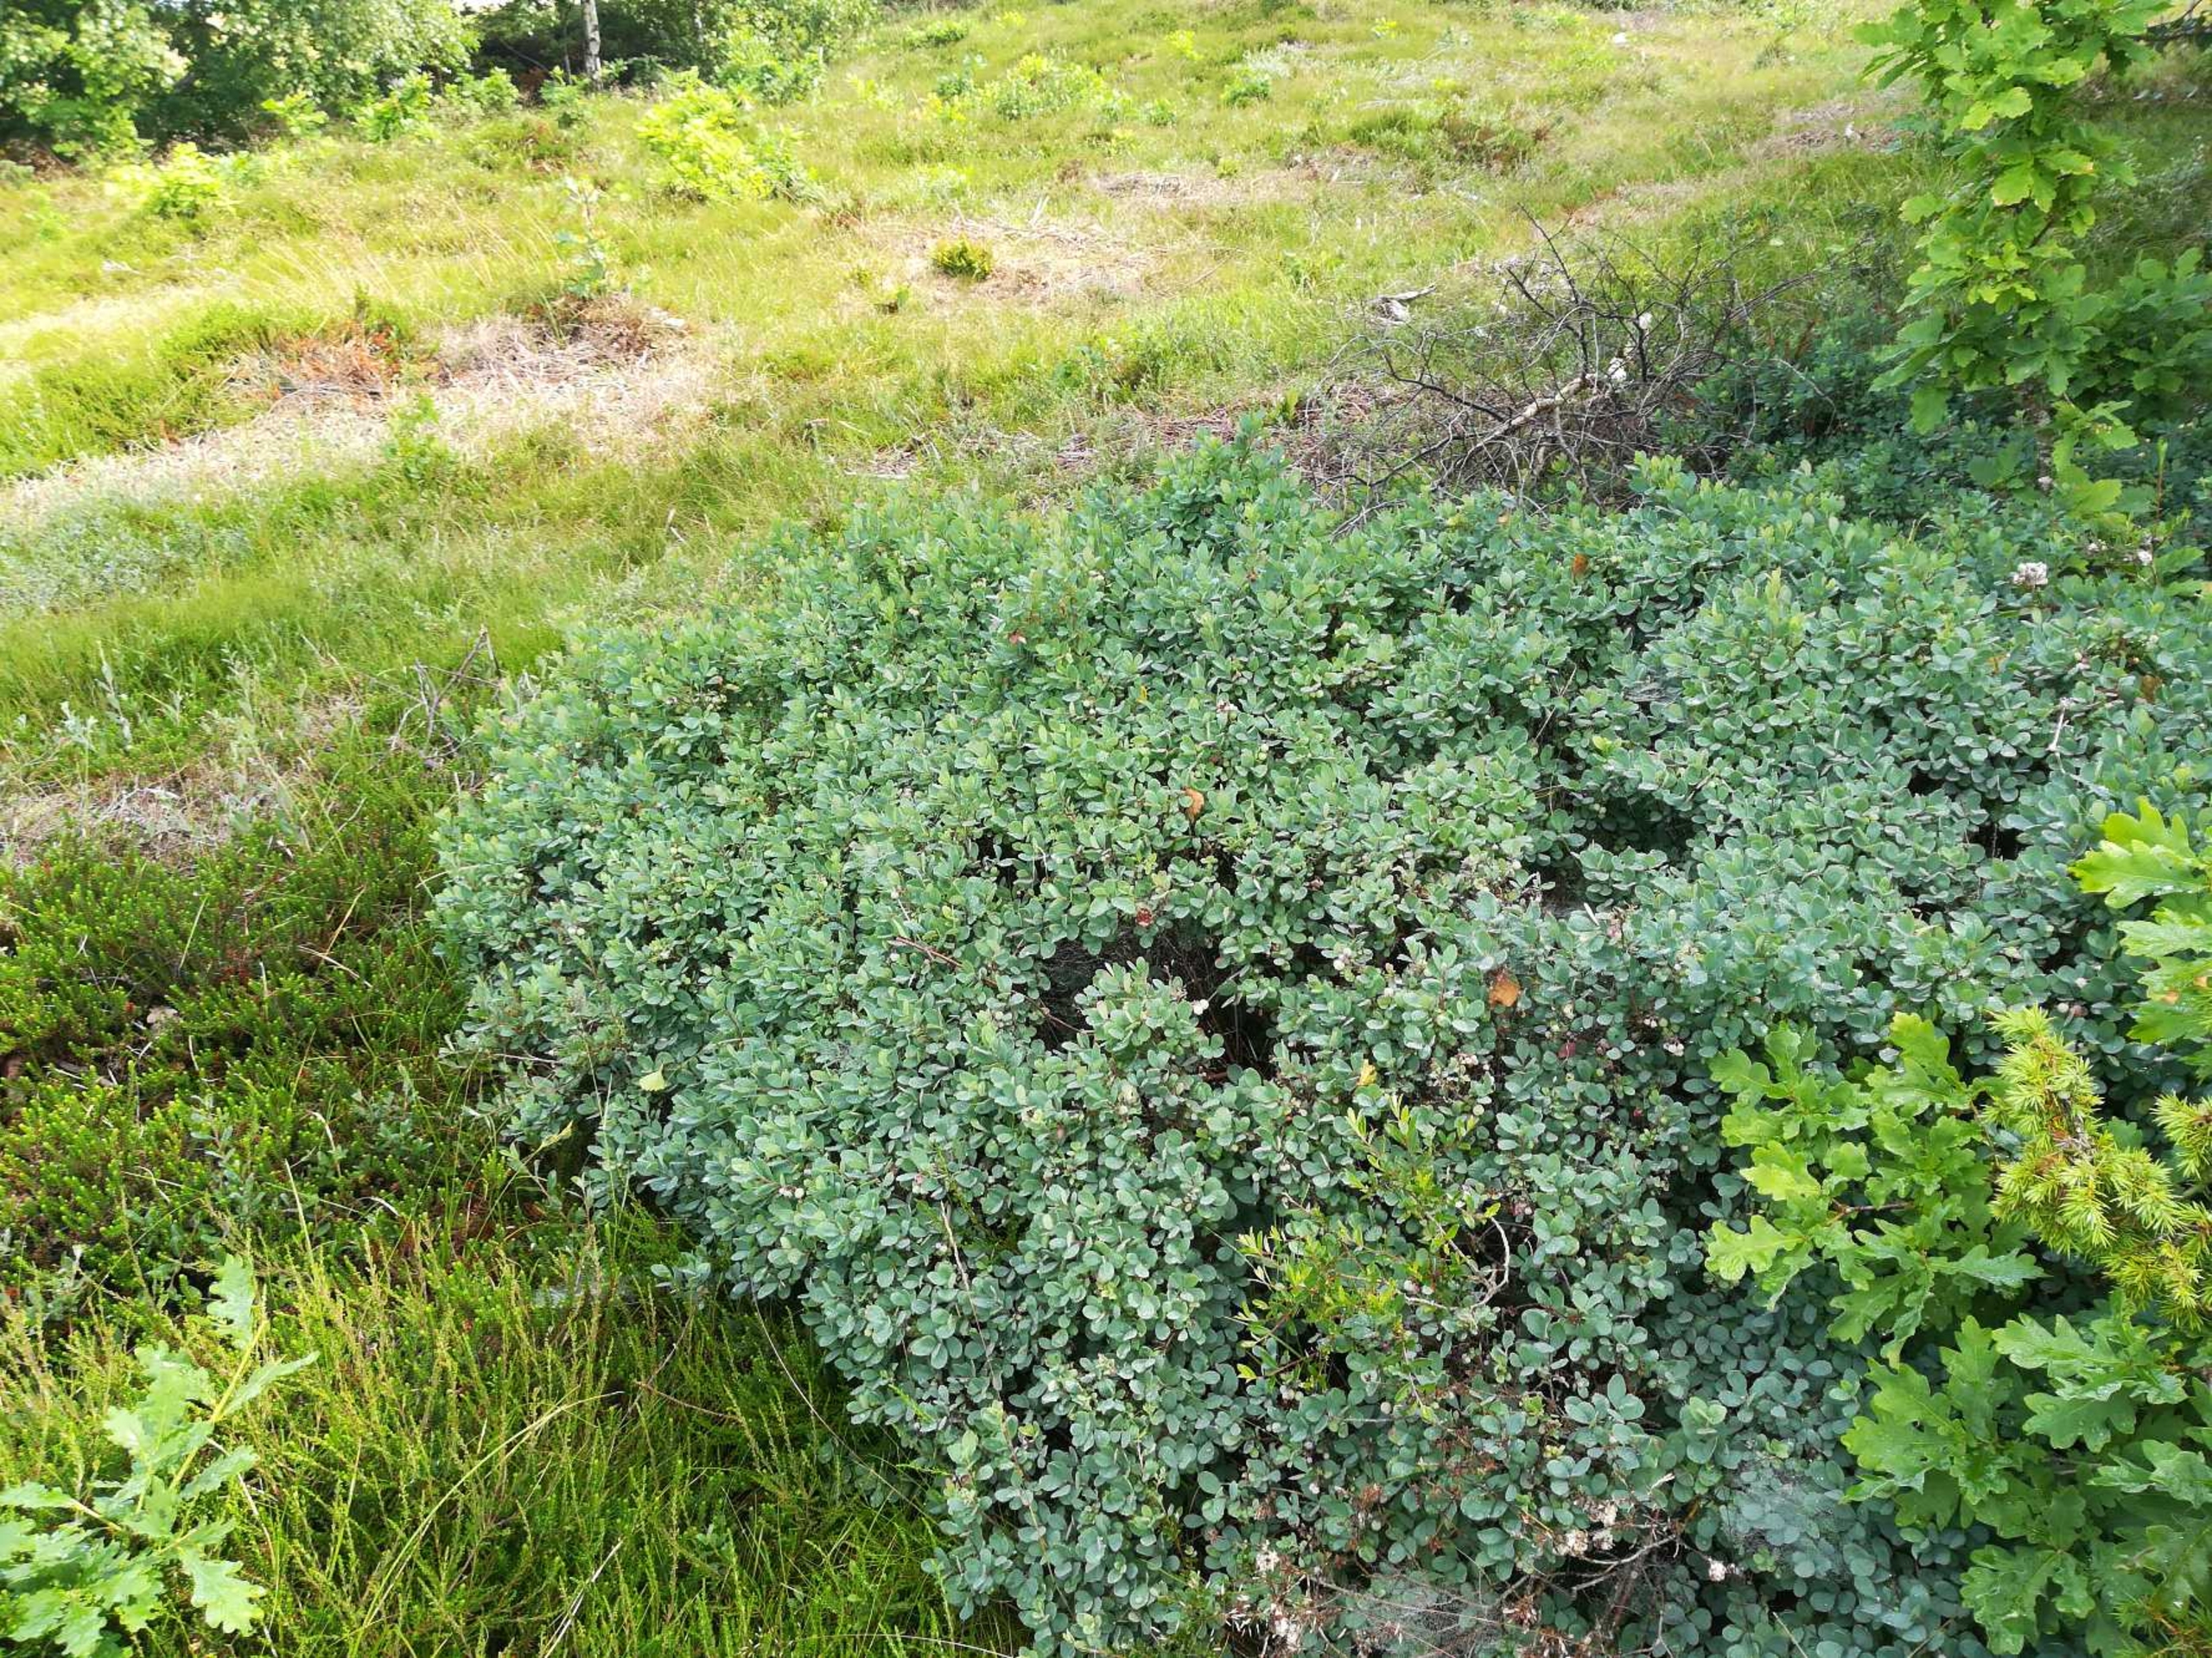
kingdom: Plantae
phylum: Tracheophyta
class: Magnoliopsida
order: Ericales
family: Ericaceae
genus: Vaccinium
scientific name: Vaccinium uliginosum
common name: Mose-bølle
